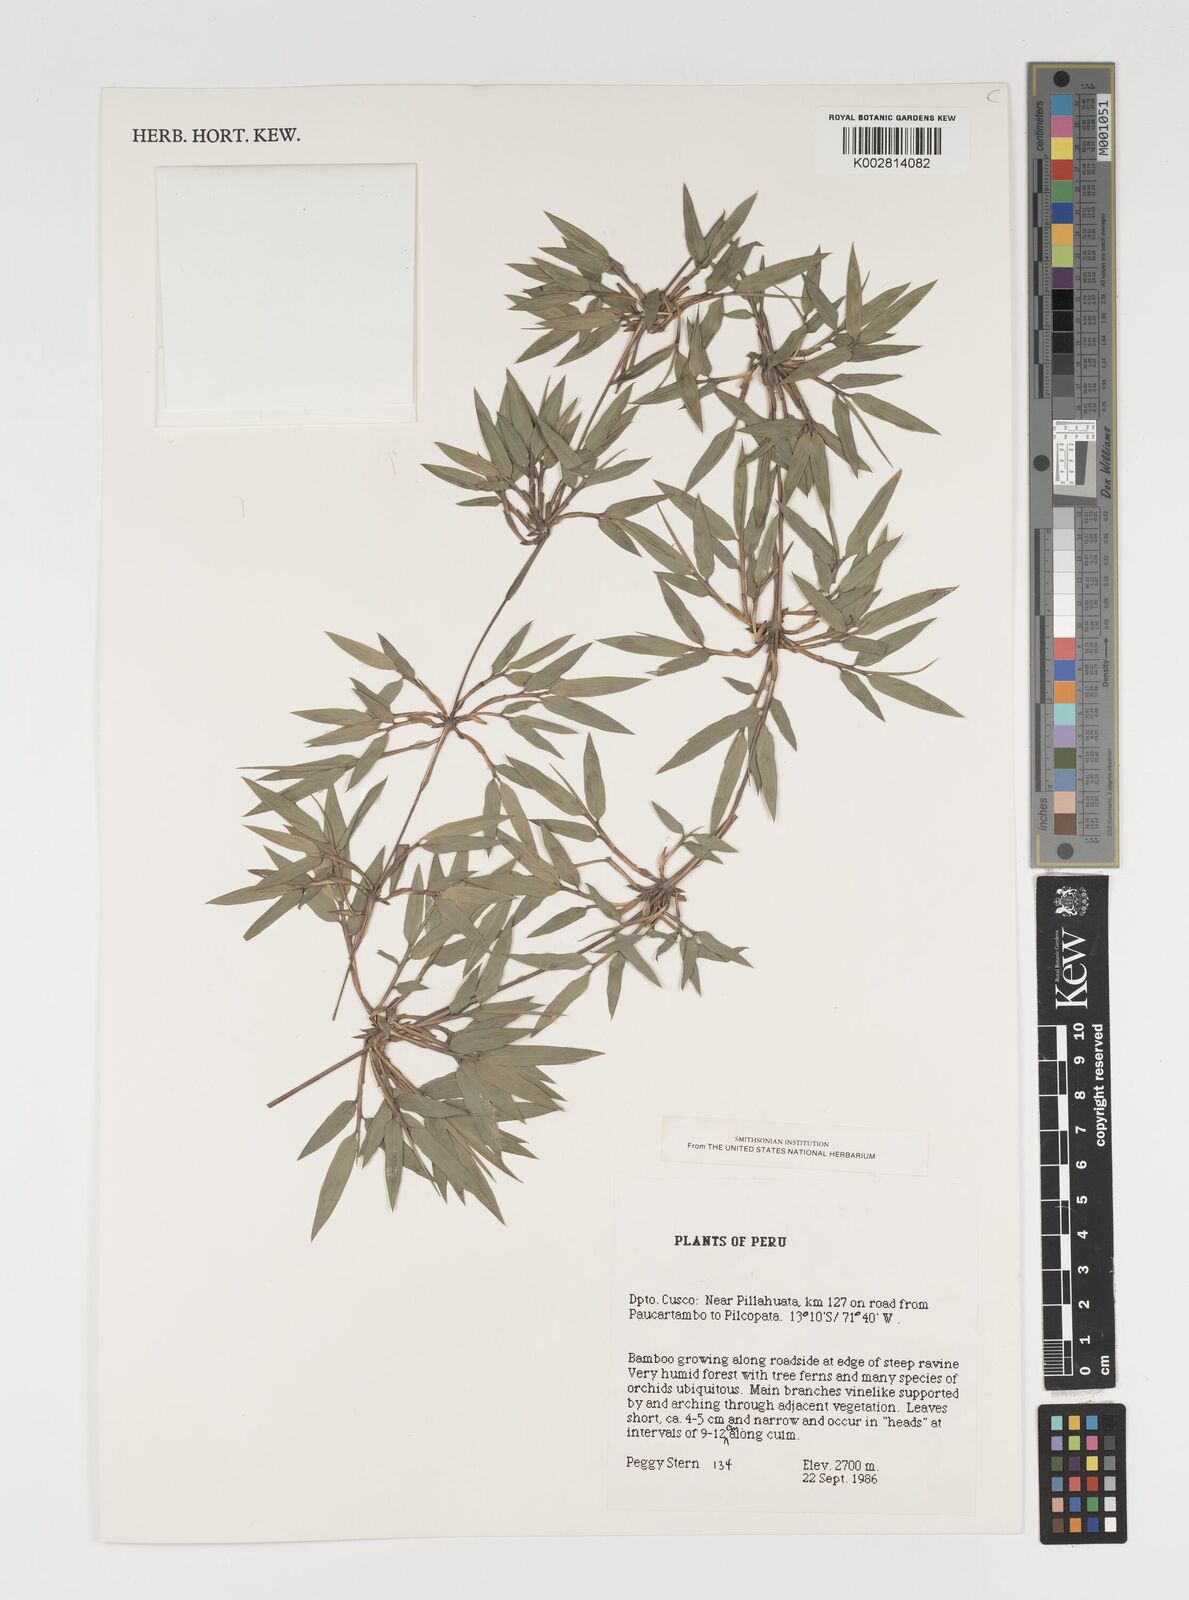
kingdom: Plantae
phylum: Tracheophyta
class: Liliopsida
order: Poales
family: Poaceae
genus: Chusquea
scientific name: Chusquea
